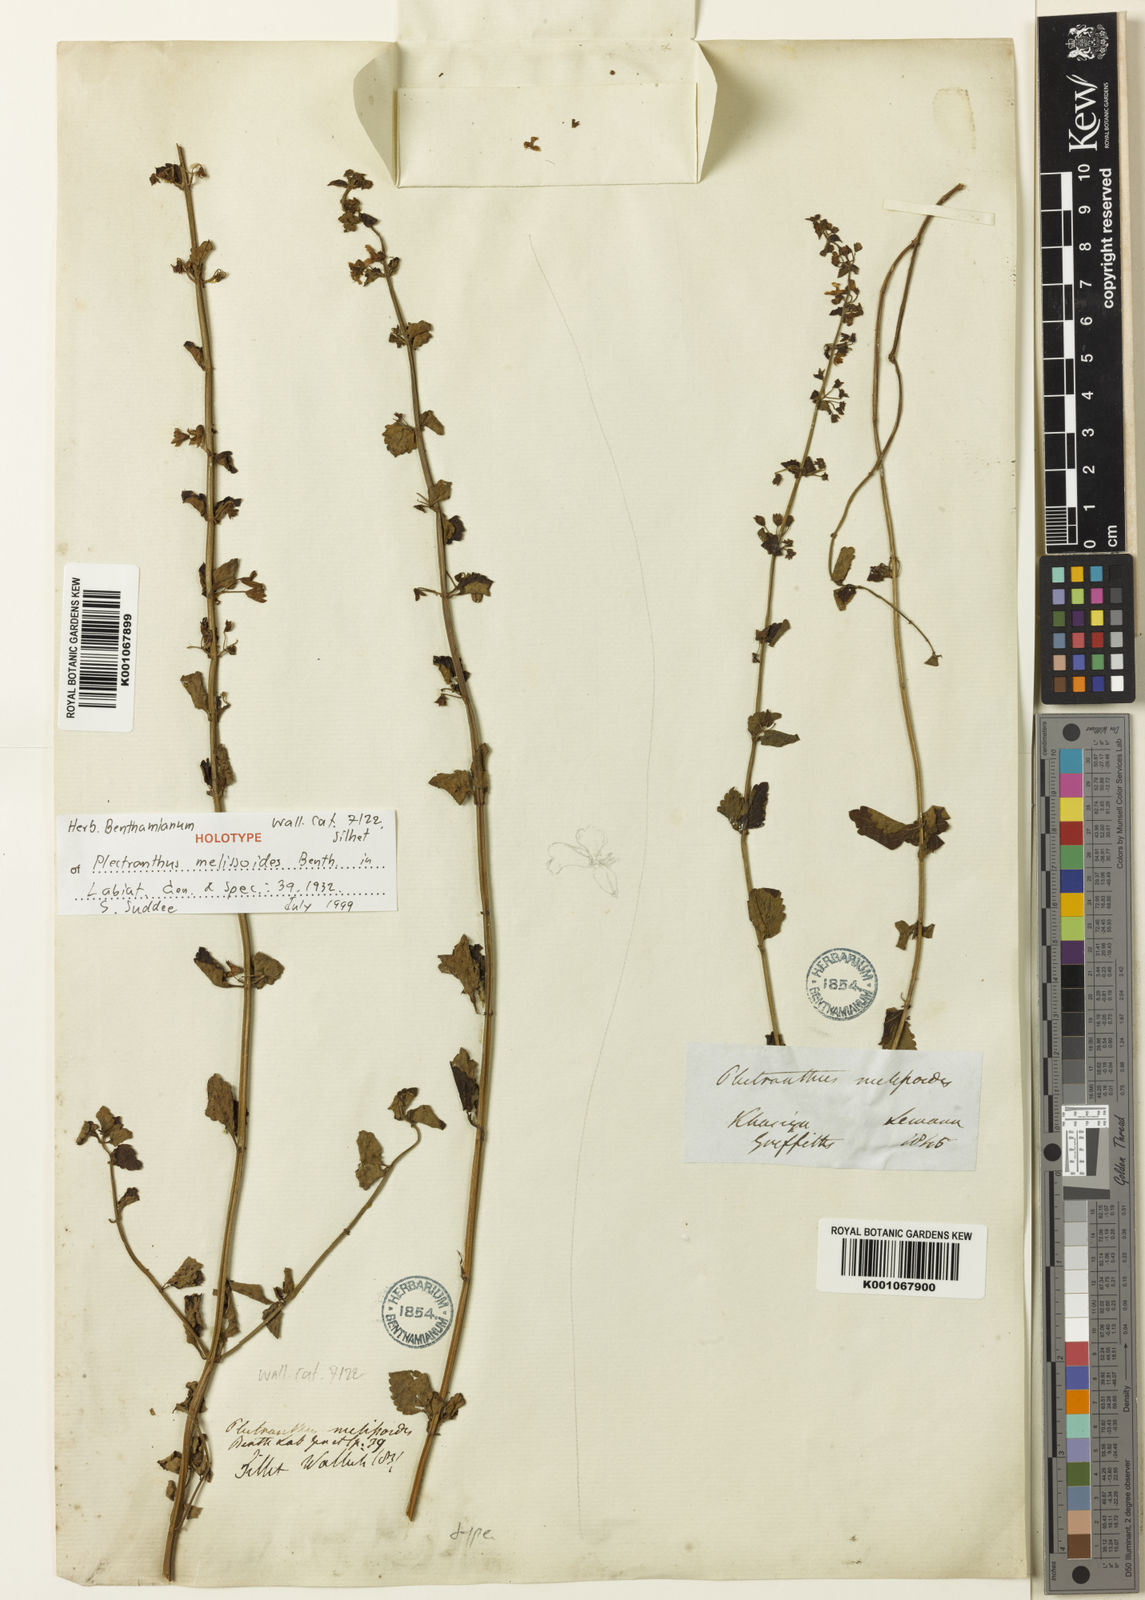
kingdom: Plantae
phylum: Tracheophyta
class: Magnoliopsida
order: Lamiales
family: Lamiaceae
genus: Isodon
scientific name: Isodon melissoides
